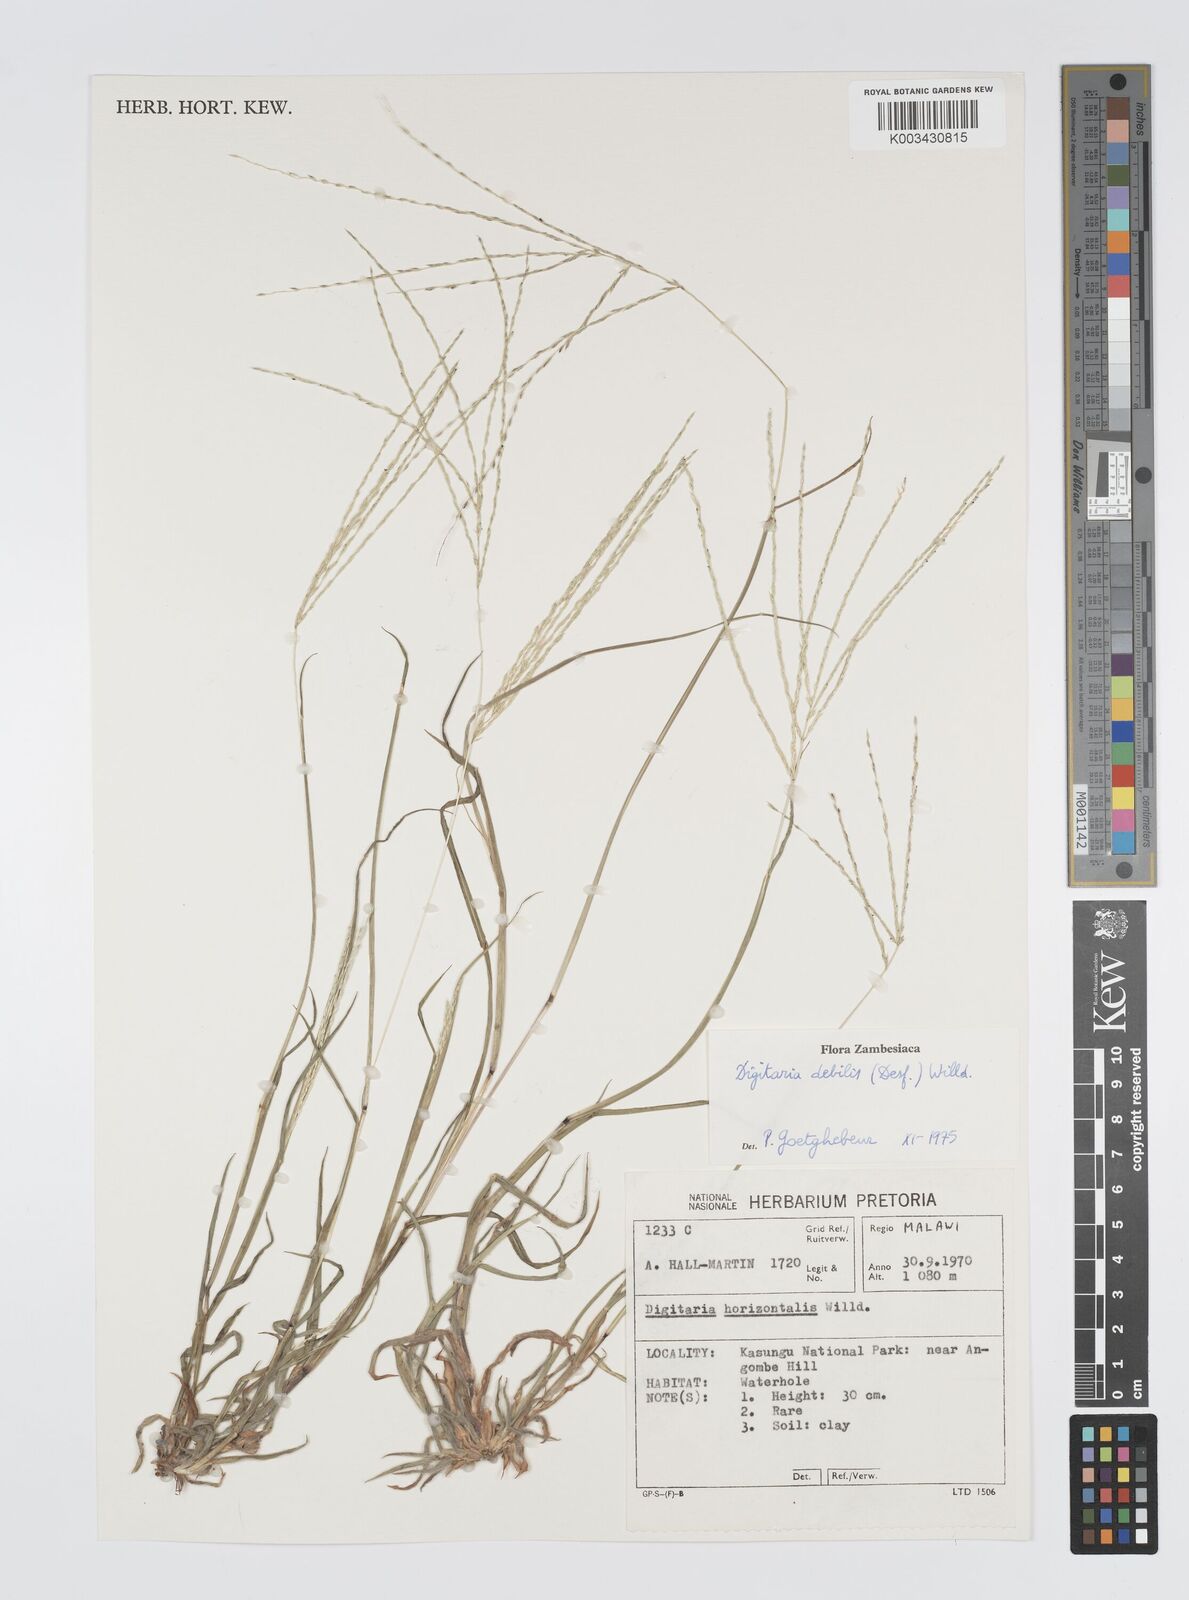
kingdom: Plantae
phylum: Tracheophyta
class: Liliopsida
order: Poales
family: Poaceae
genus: Digitaria
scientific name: Digitaria debilis
